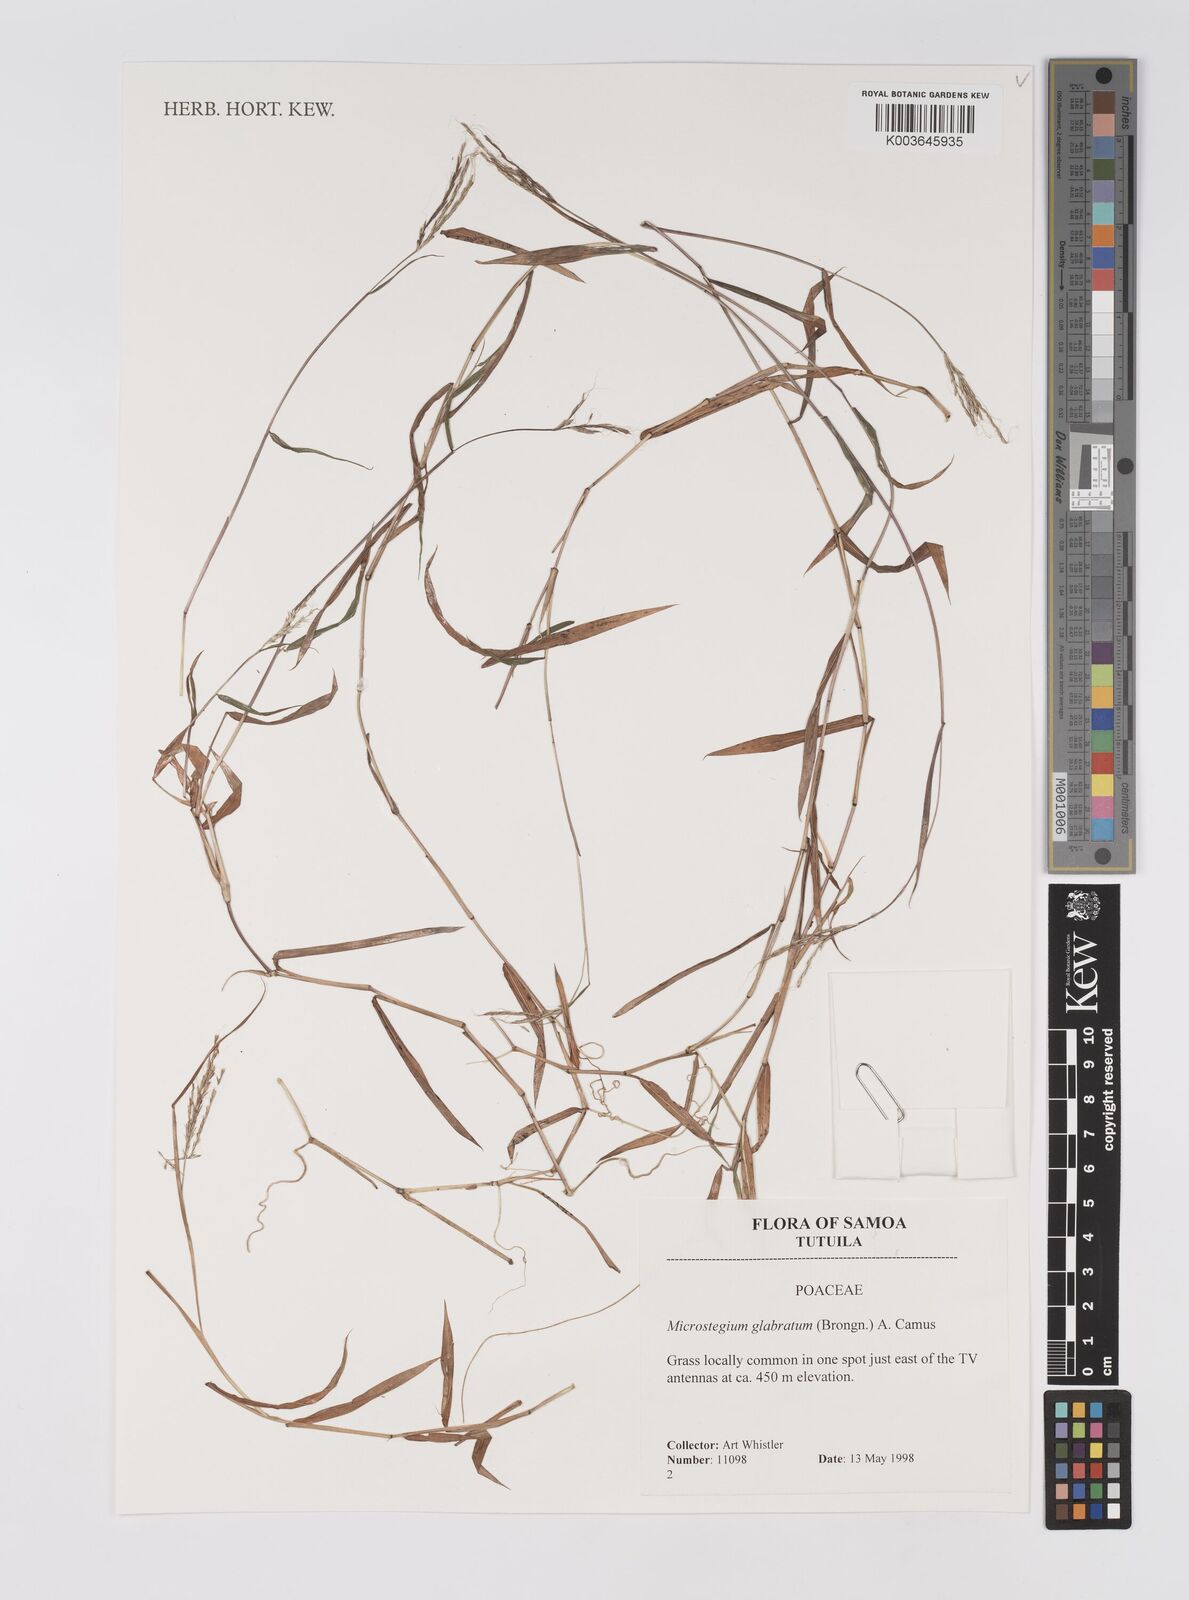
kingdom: Plantae
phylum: Tracheophyta
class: Liliopsida
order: Poales
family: Poaceae
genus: Microstegium
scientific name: Microstegium glabratum
